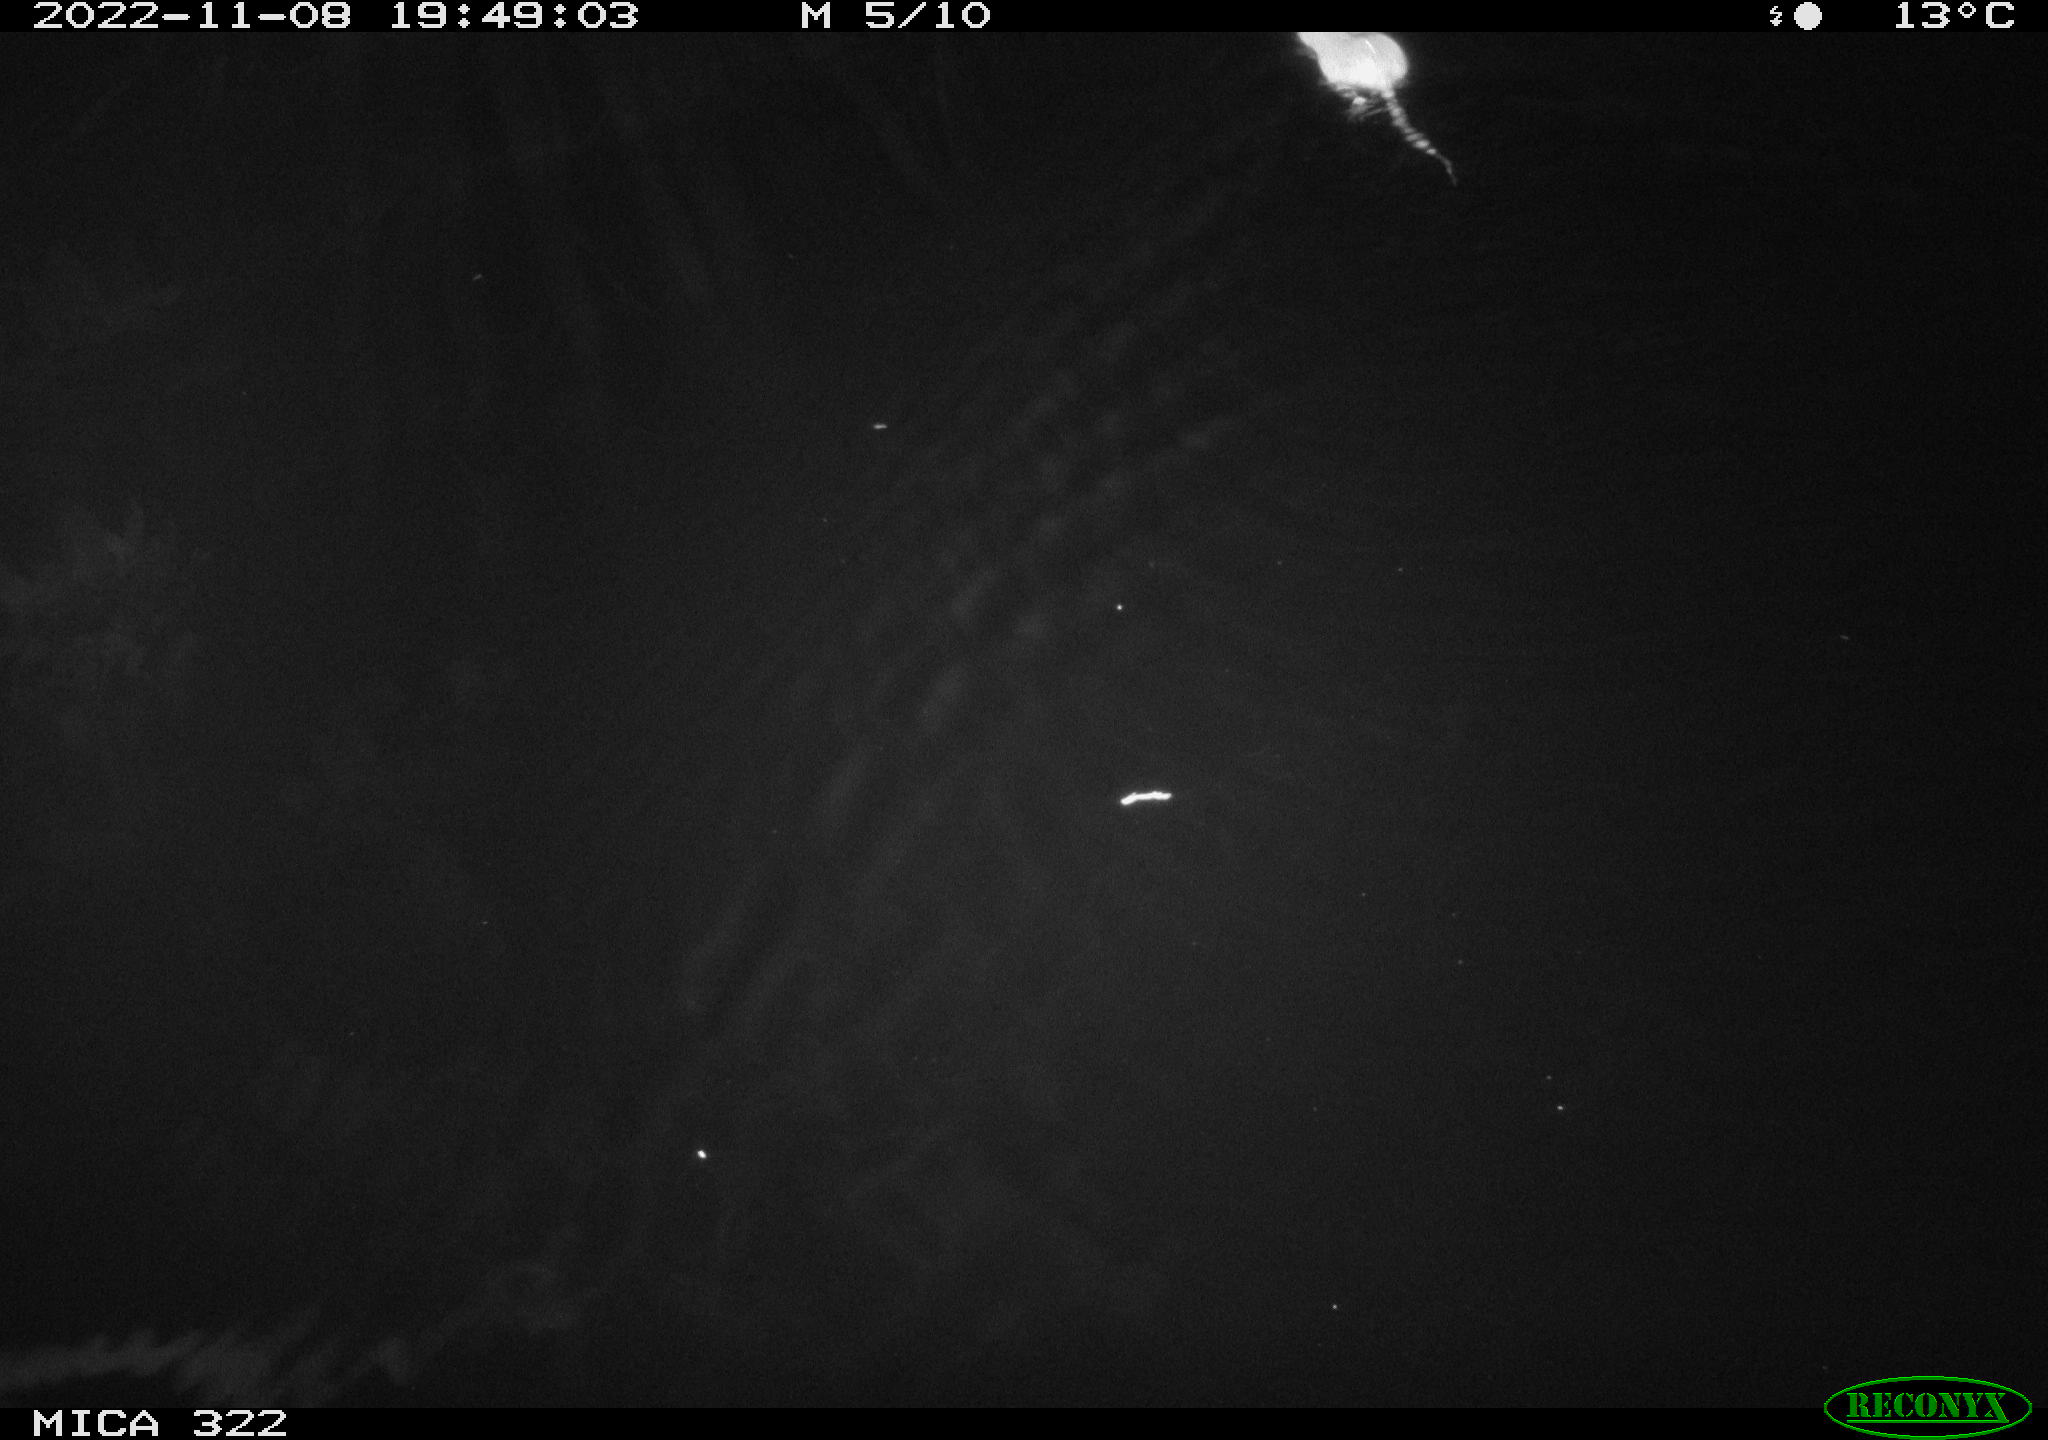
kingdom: Animalia
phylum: Chordata
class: Mammalia
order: Rodentia
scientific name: Rodentia
